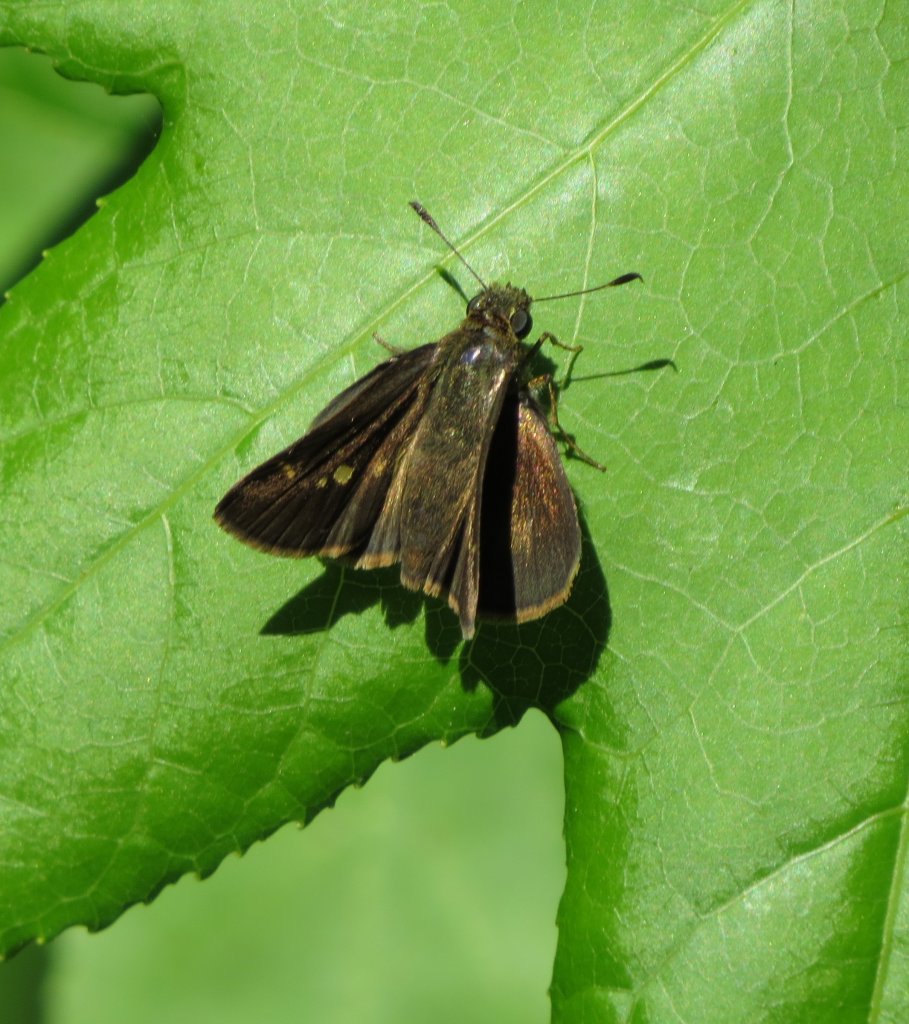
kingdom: Animalia
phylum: Arthropoda
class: Insecta
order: Lepidoptera
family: Hesperiidae
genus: Polites
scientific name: Polites vibex
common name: Whirlabout
